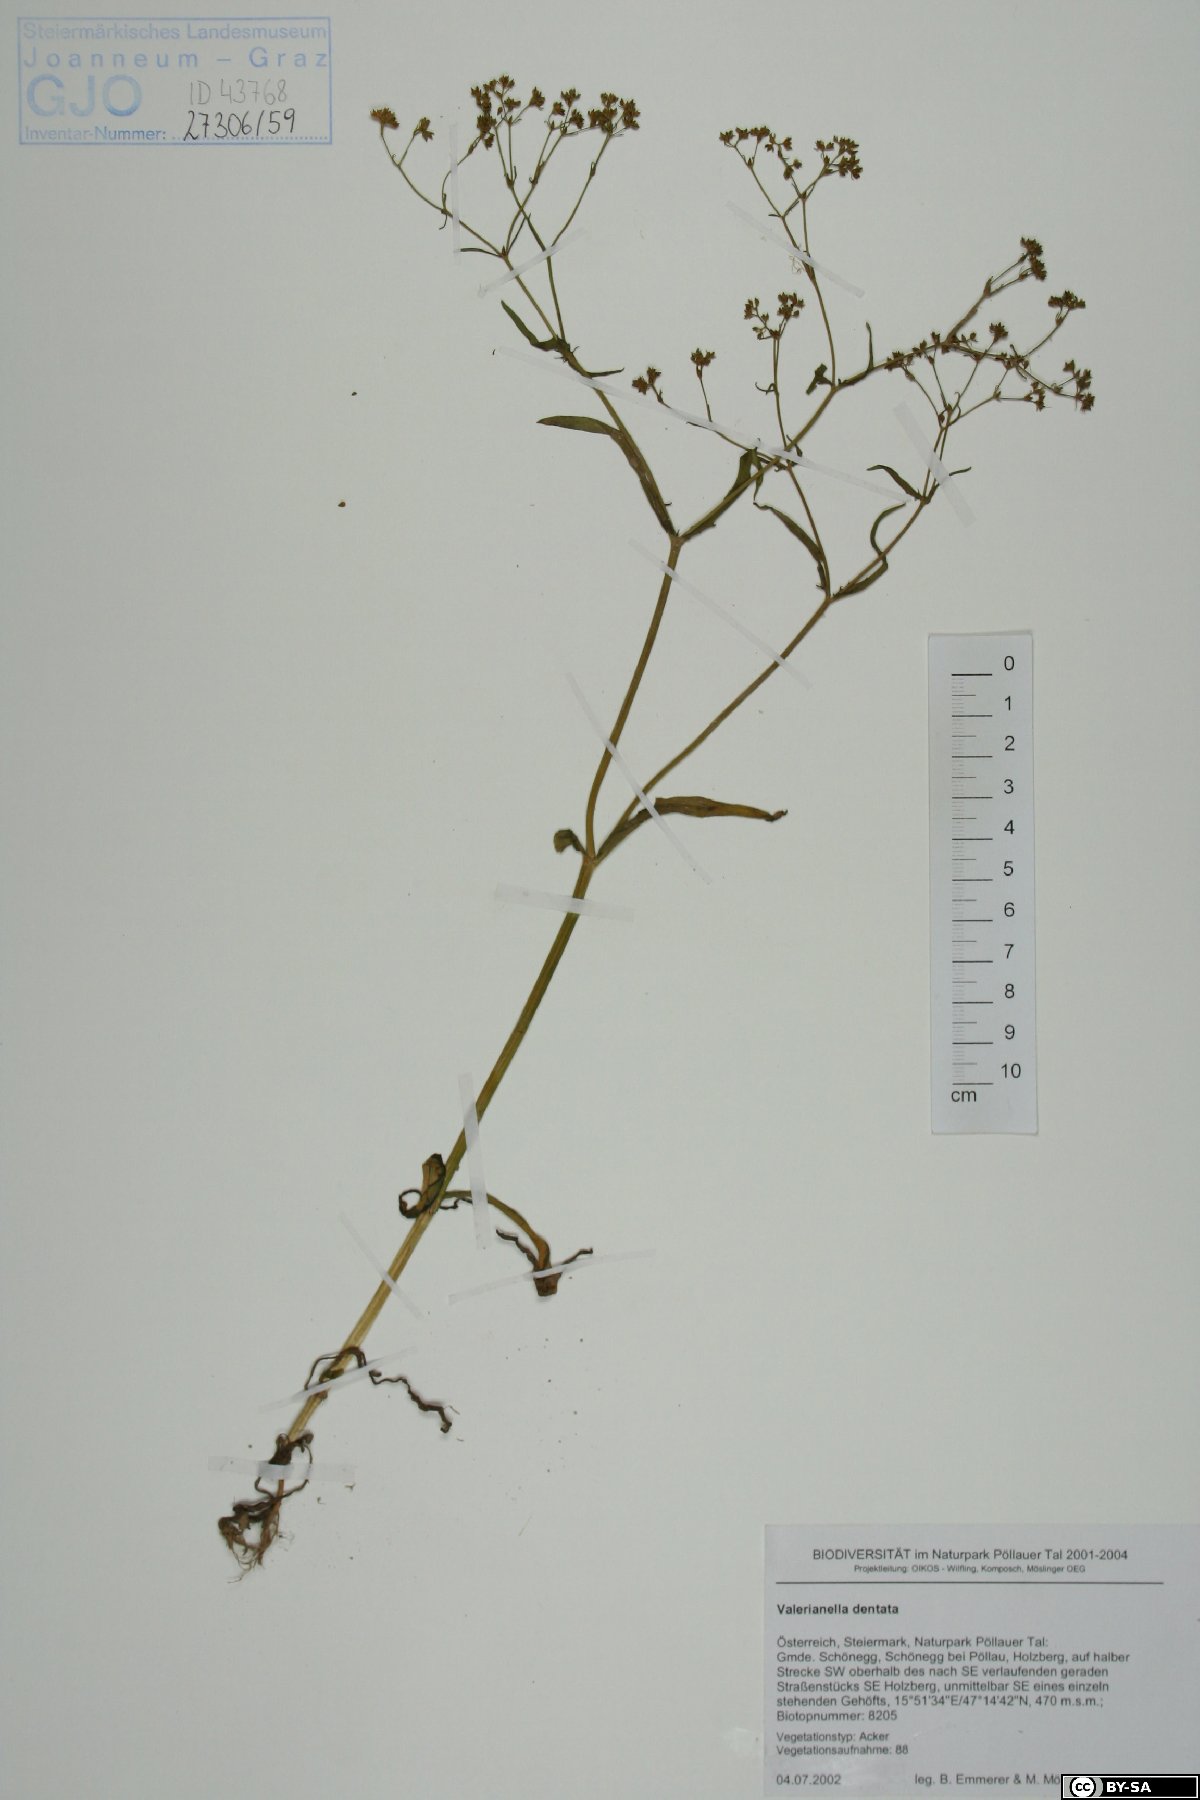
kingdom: Plantae
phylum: Tracheophyta
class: Magnoliopsida
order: Dipsacales
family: Caprifoliaceae
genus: Valerianella
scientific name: Valerianella dentata
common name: Narrow-fruited cornsalad
